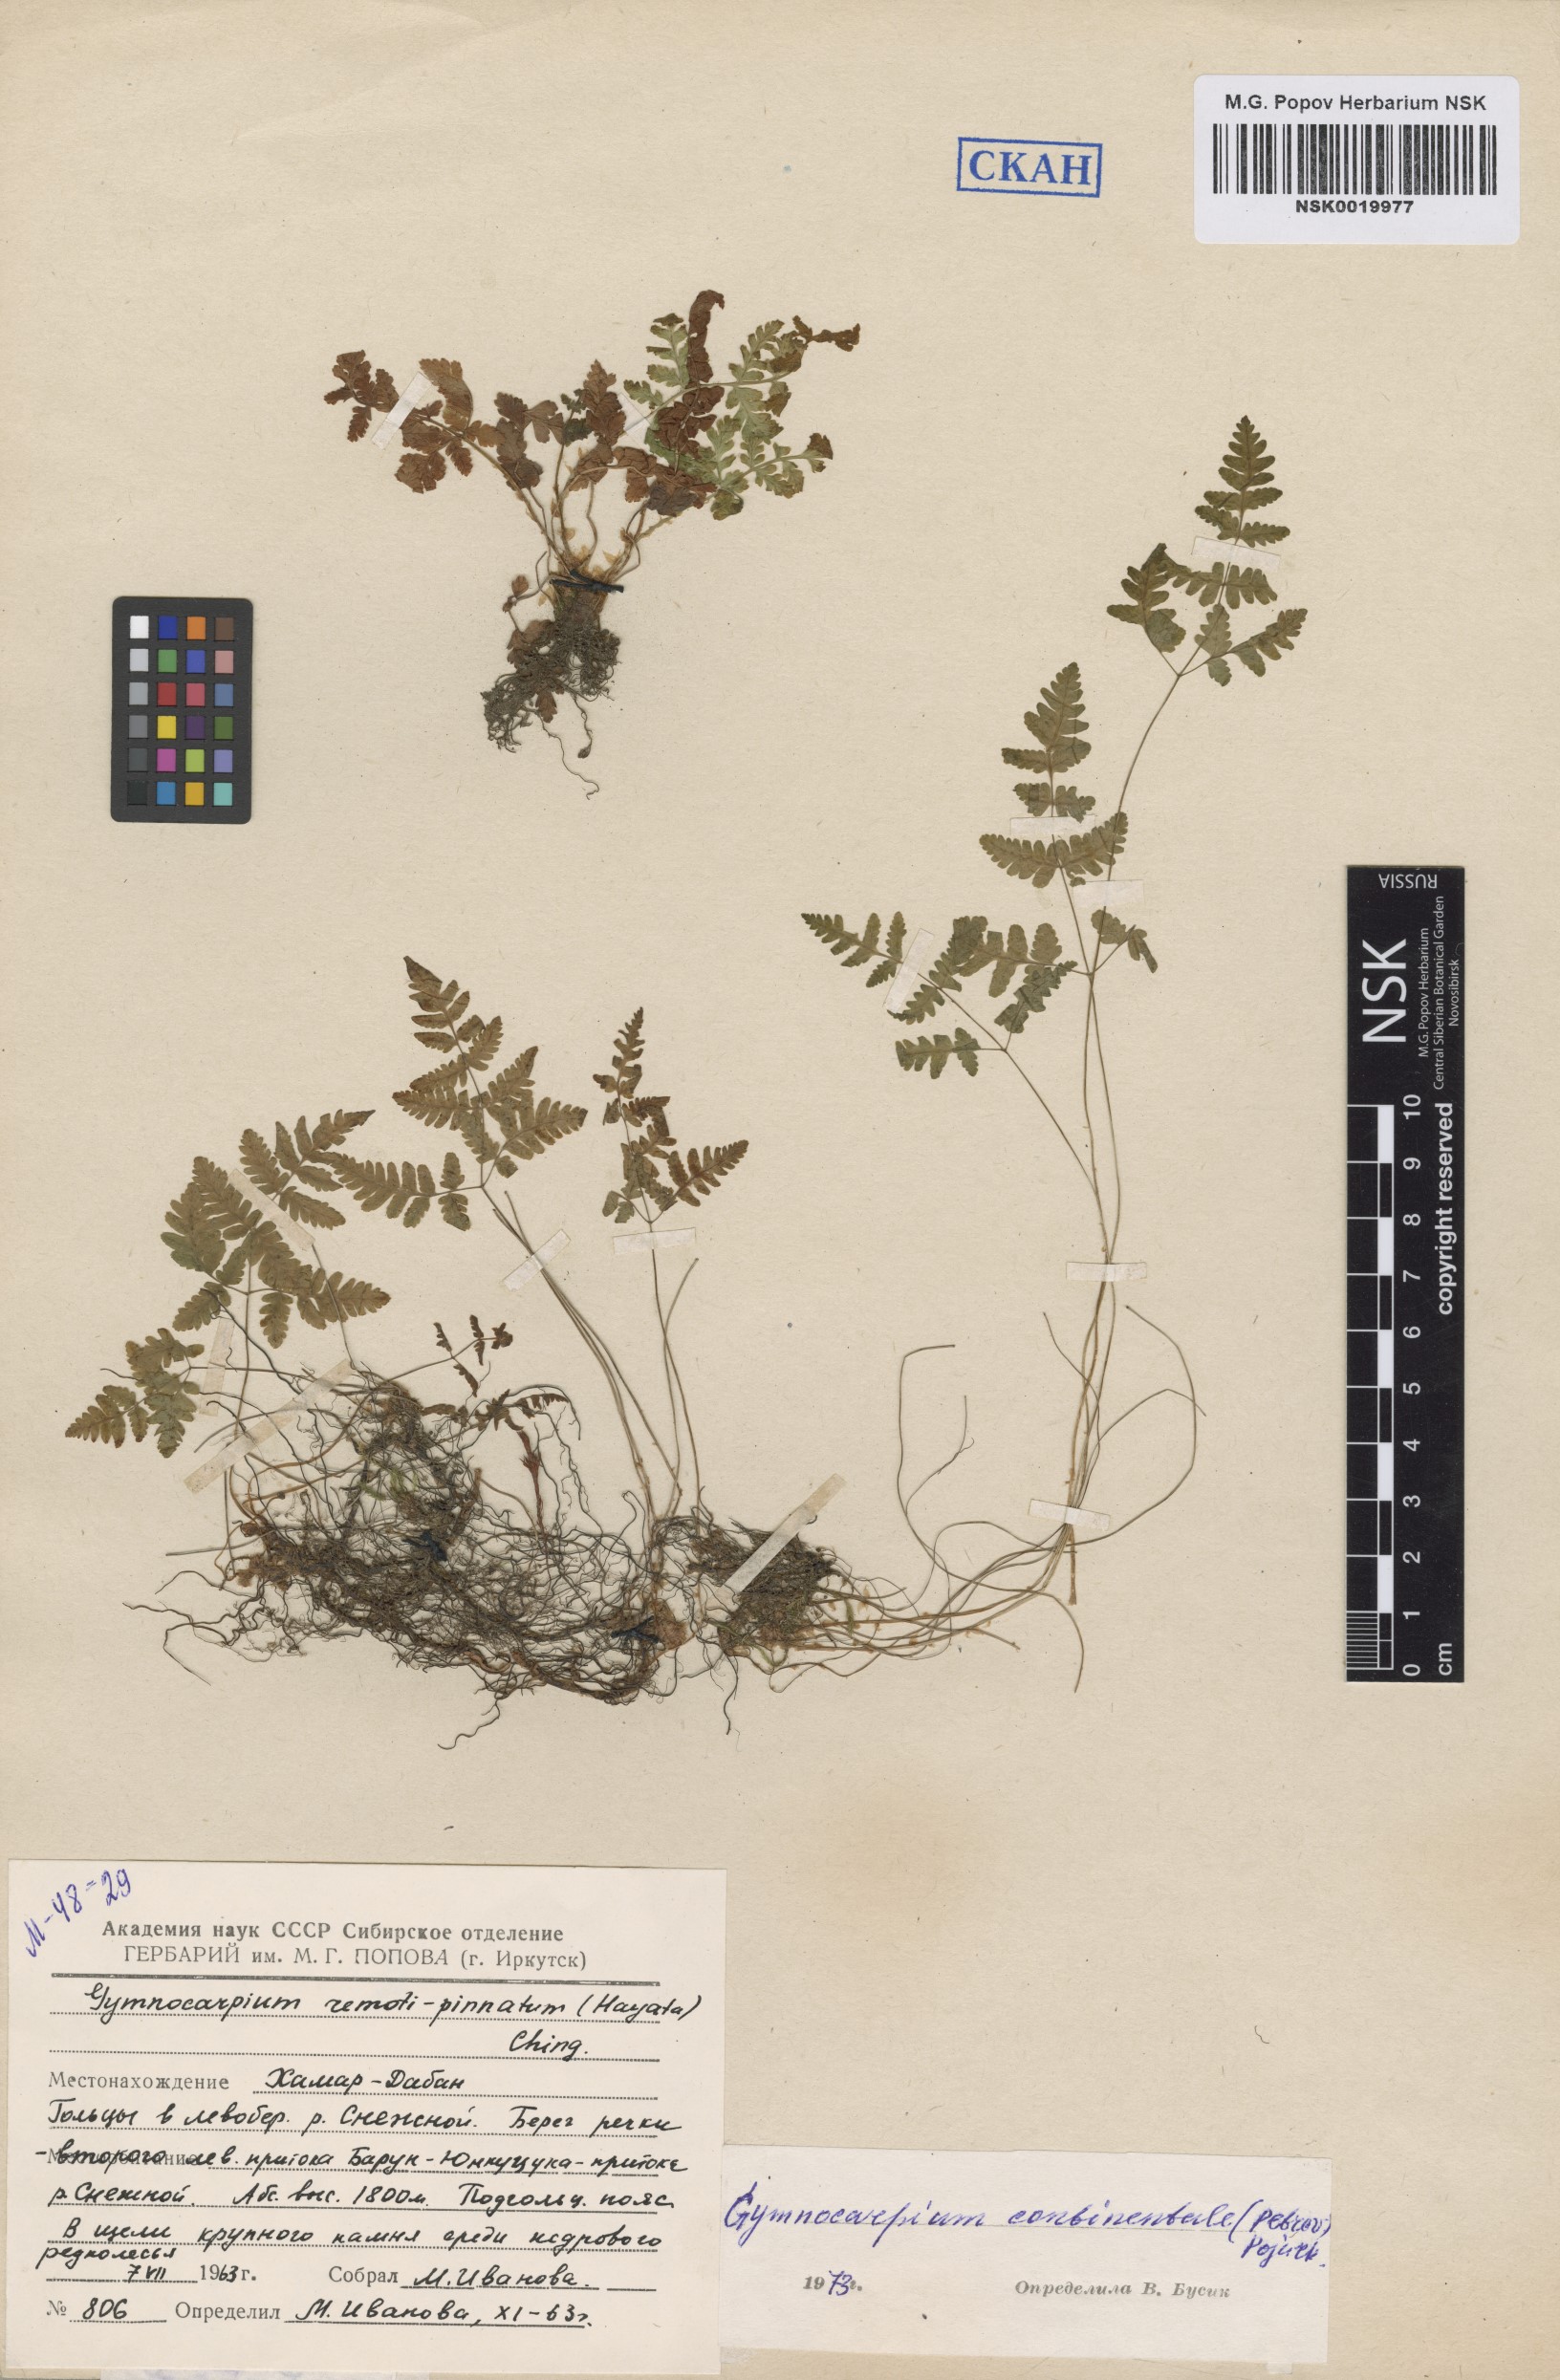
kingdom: Plantae
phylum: Tracheophyta
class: Polypodiopsida
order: Polypodiales
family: Cystopteridaceae
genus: Gymnocarpium
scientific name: Gymnocarpium continentale
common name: Asian oak fern
